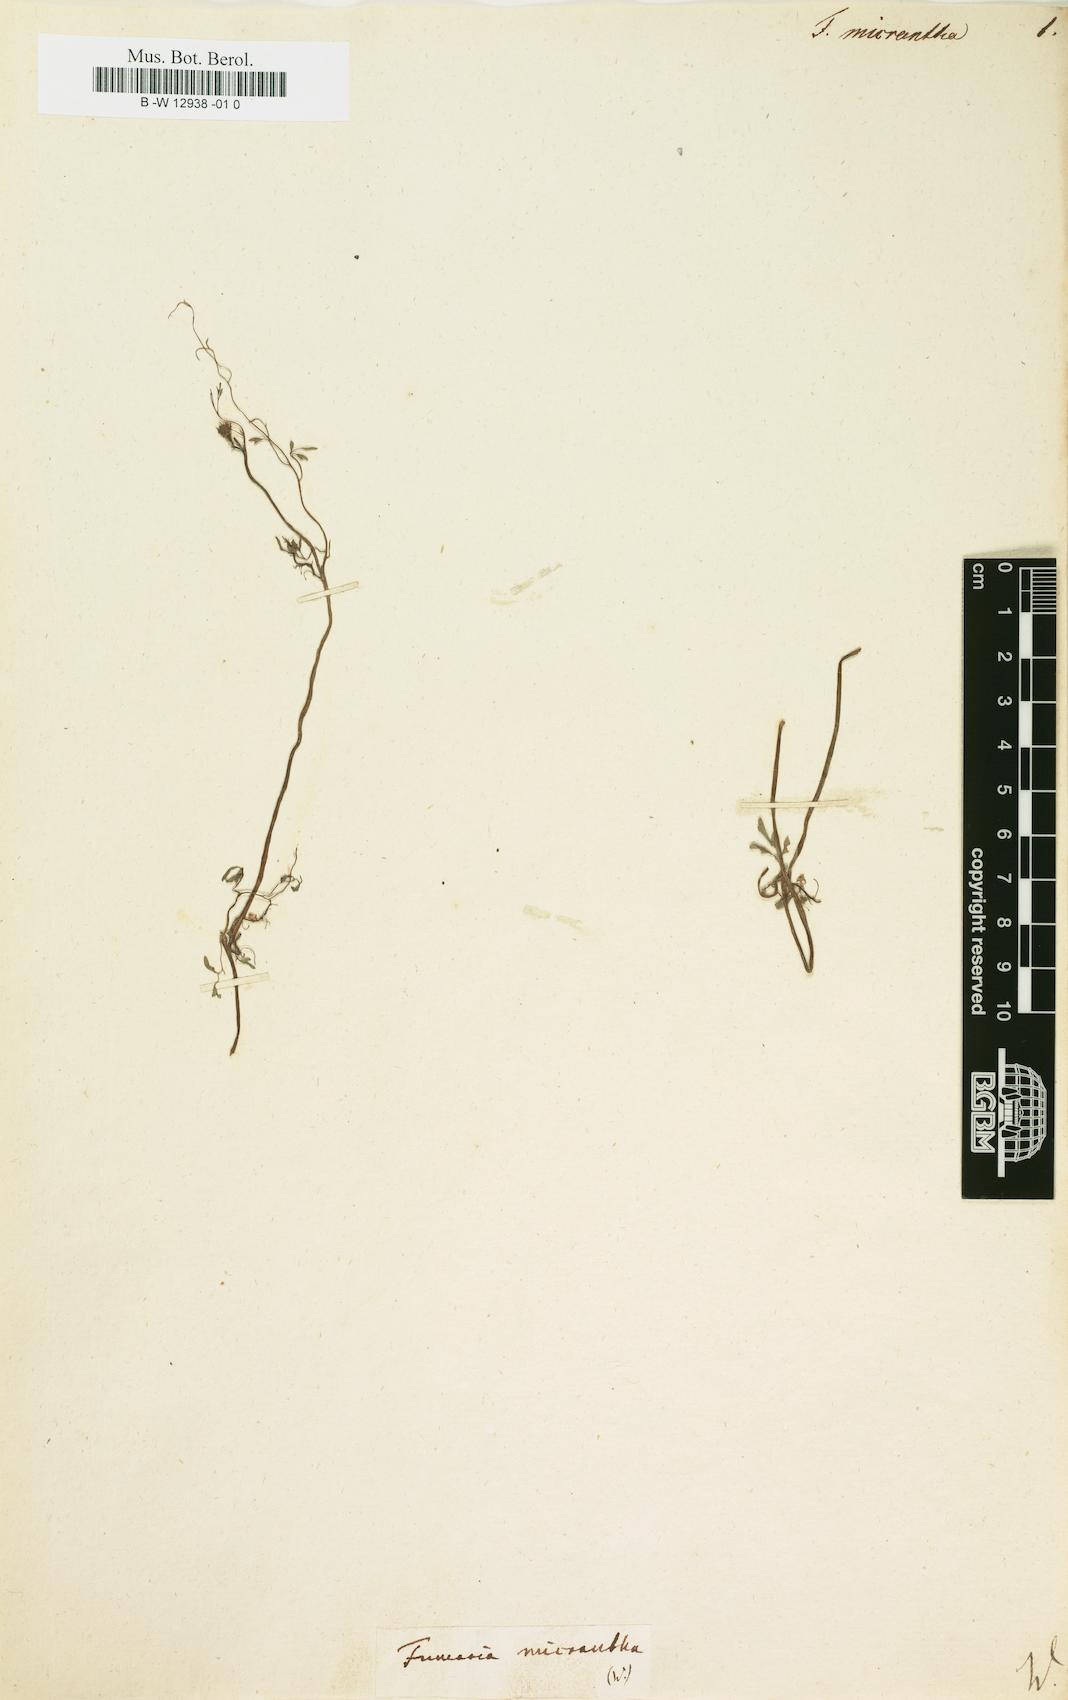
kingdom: Plantae
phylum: Tracheophyta
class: Magnoliopsida
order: Ranunculales
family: Papaveraceae
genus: Fumaria
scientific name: Fumaria densiflora
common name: Dense-flowered fumitory
